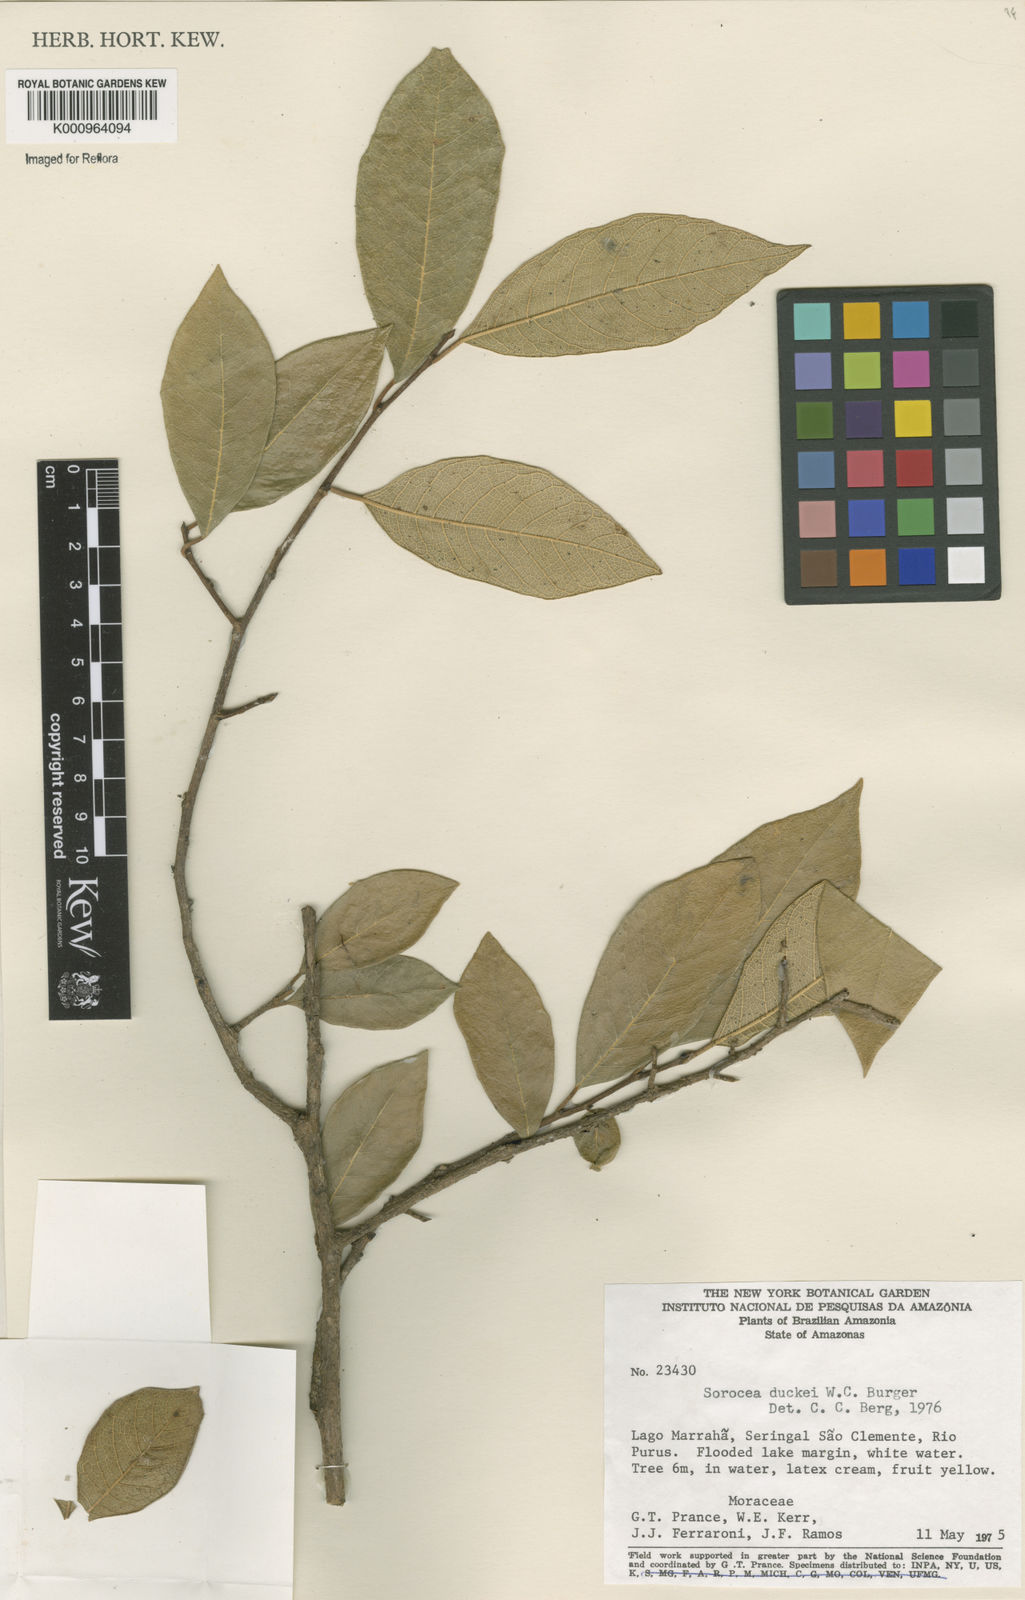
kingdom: Plantae
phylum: Tracheophyta
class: Magnoliopsida
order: Rosales
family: Moraceae
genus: Sorocea
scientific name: Sorocea duckei
